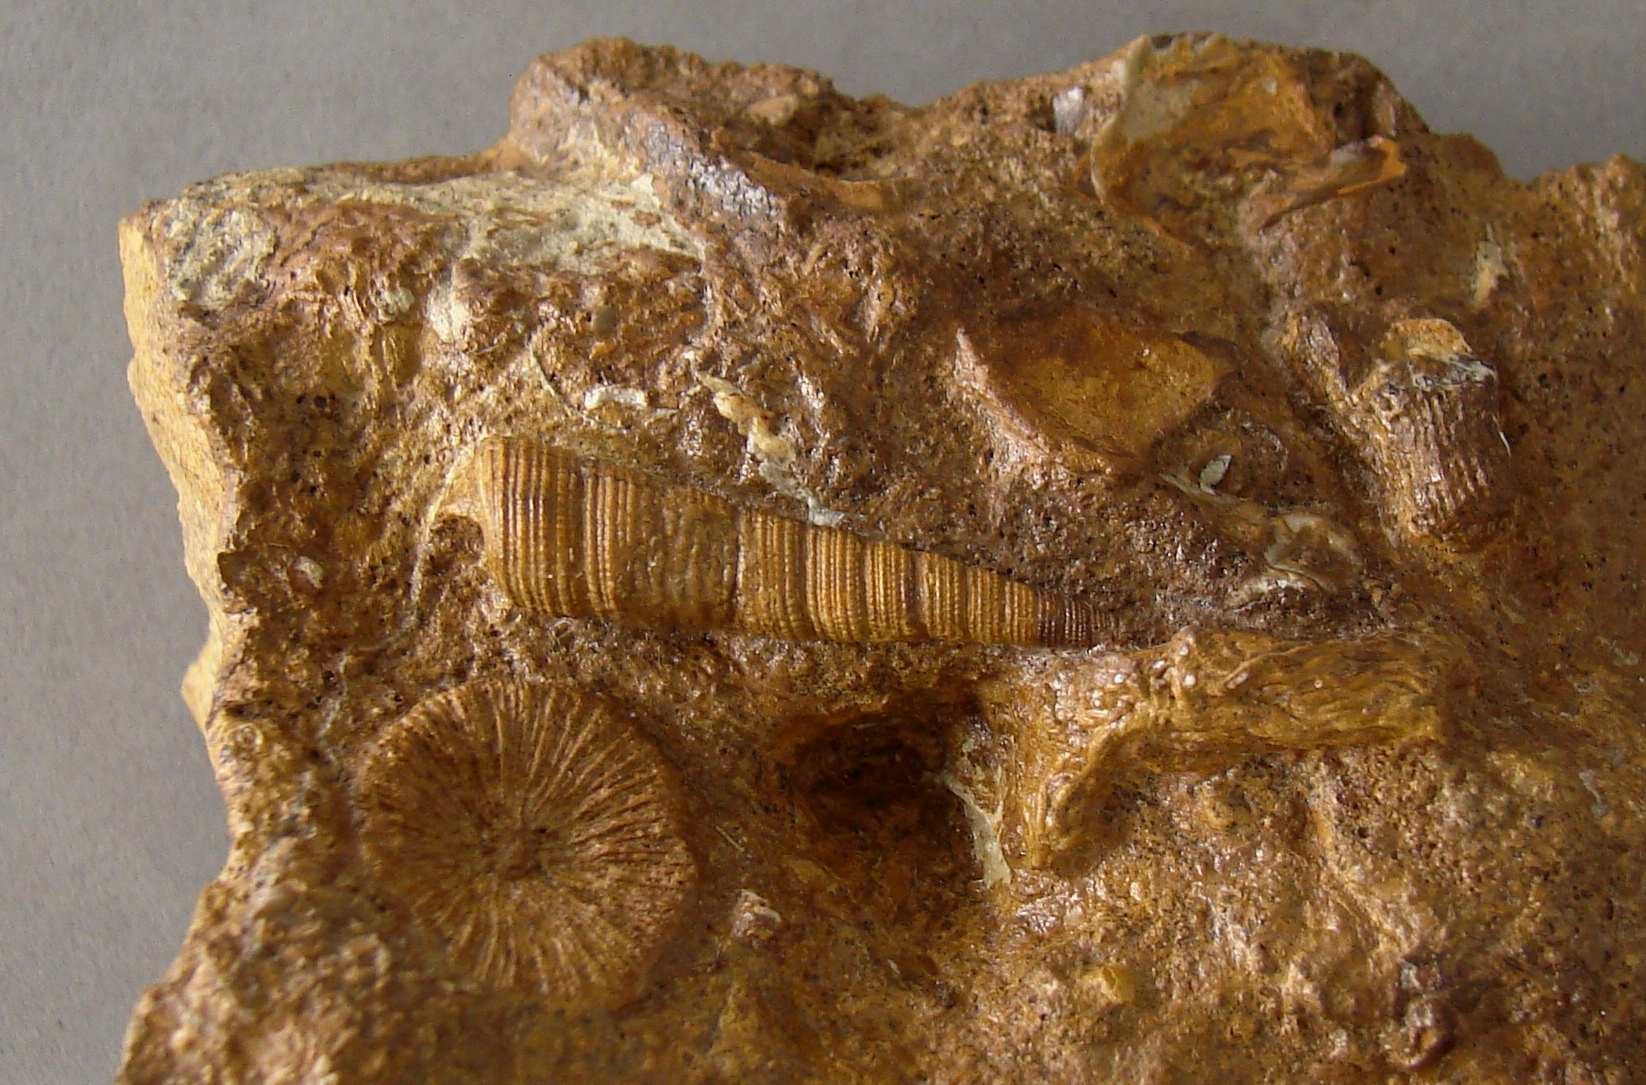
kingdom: Animalia
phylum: Mollusca
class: Gastropoda
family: Gordenellidae
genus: Turritelloidea
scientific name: Turritelloidea
